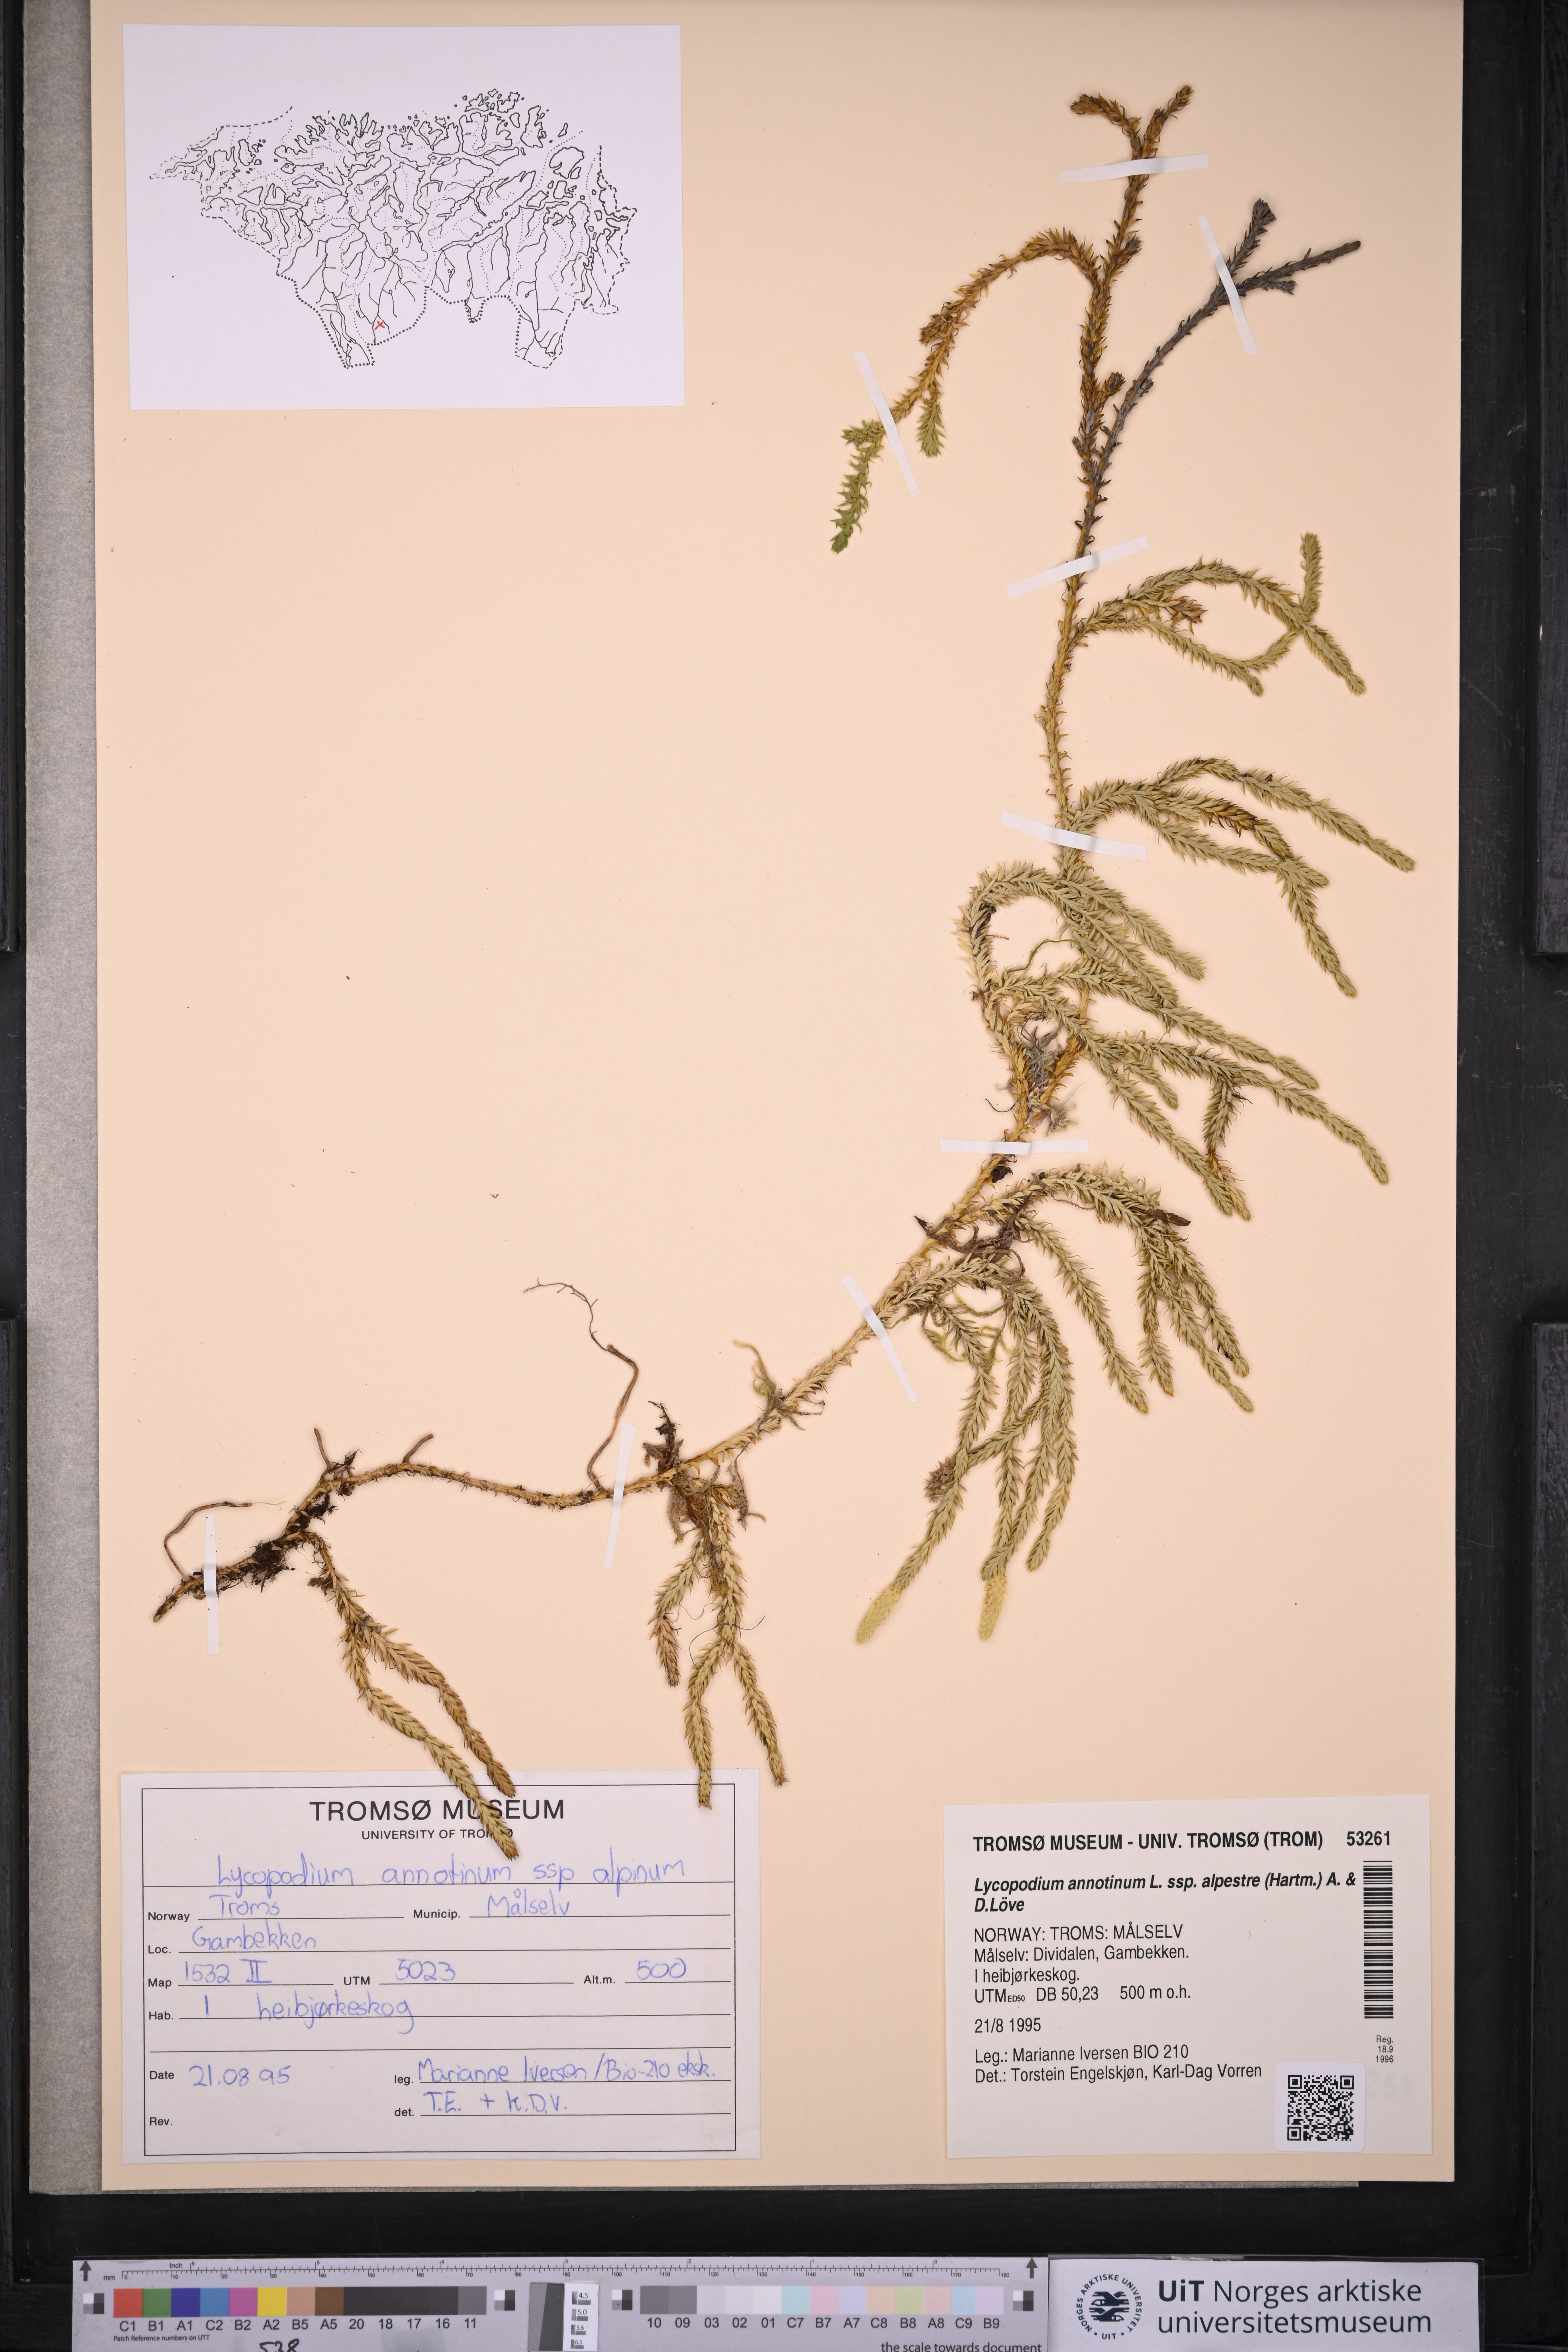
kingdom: Plantae
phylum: Tracheophyta
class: Lycopodiopsida
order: Lycopodiales
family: Lycopodiaceae
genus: Spinulum
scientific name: Spinulum annotinum
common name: Interrupted club-moss
